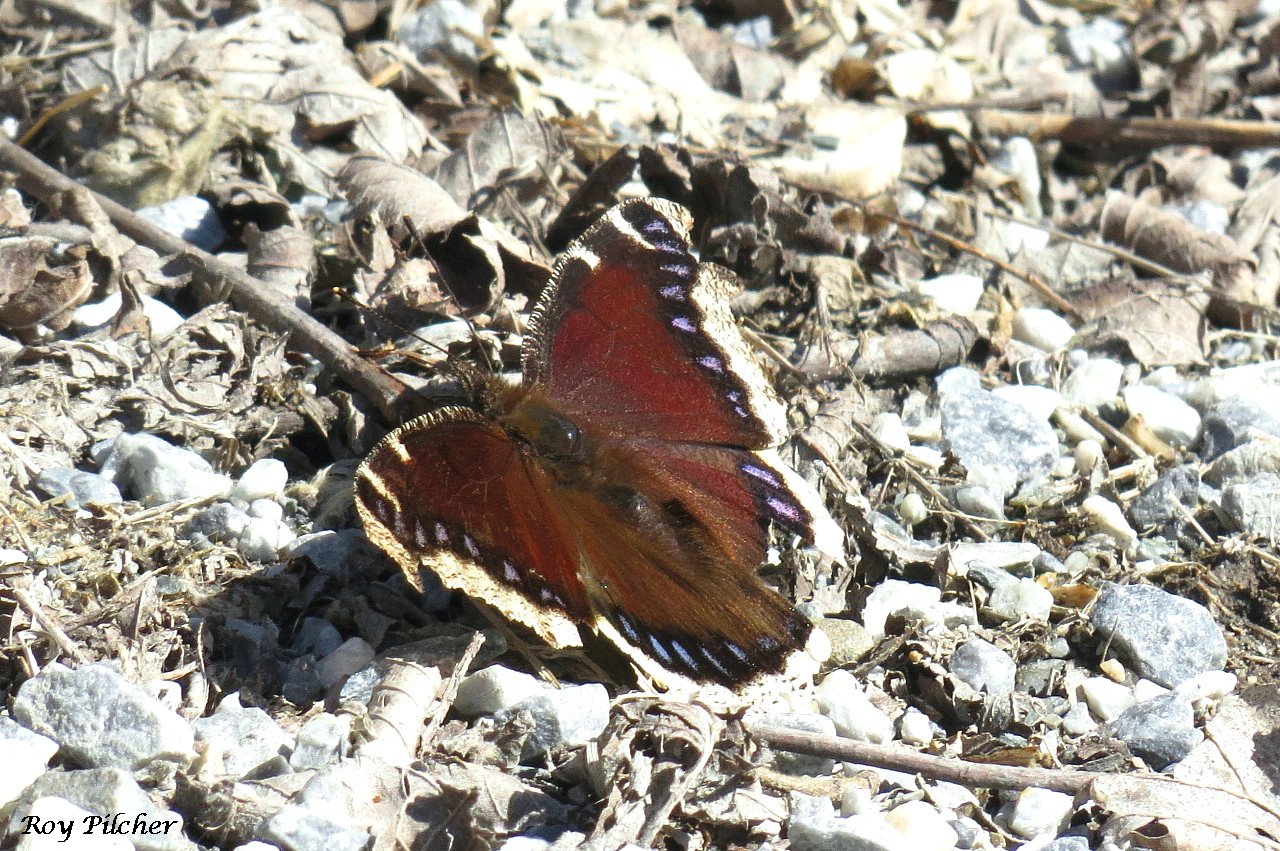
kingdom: Animalia
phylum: Arthropoda
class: Insecta
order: Lepidoptera
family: Nymphalidae
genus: Nymphalis
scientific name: Nymphalis antiopa
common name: Mourning Cloak
